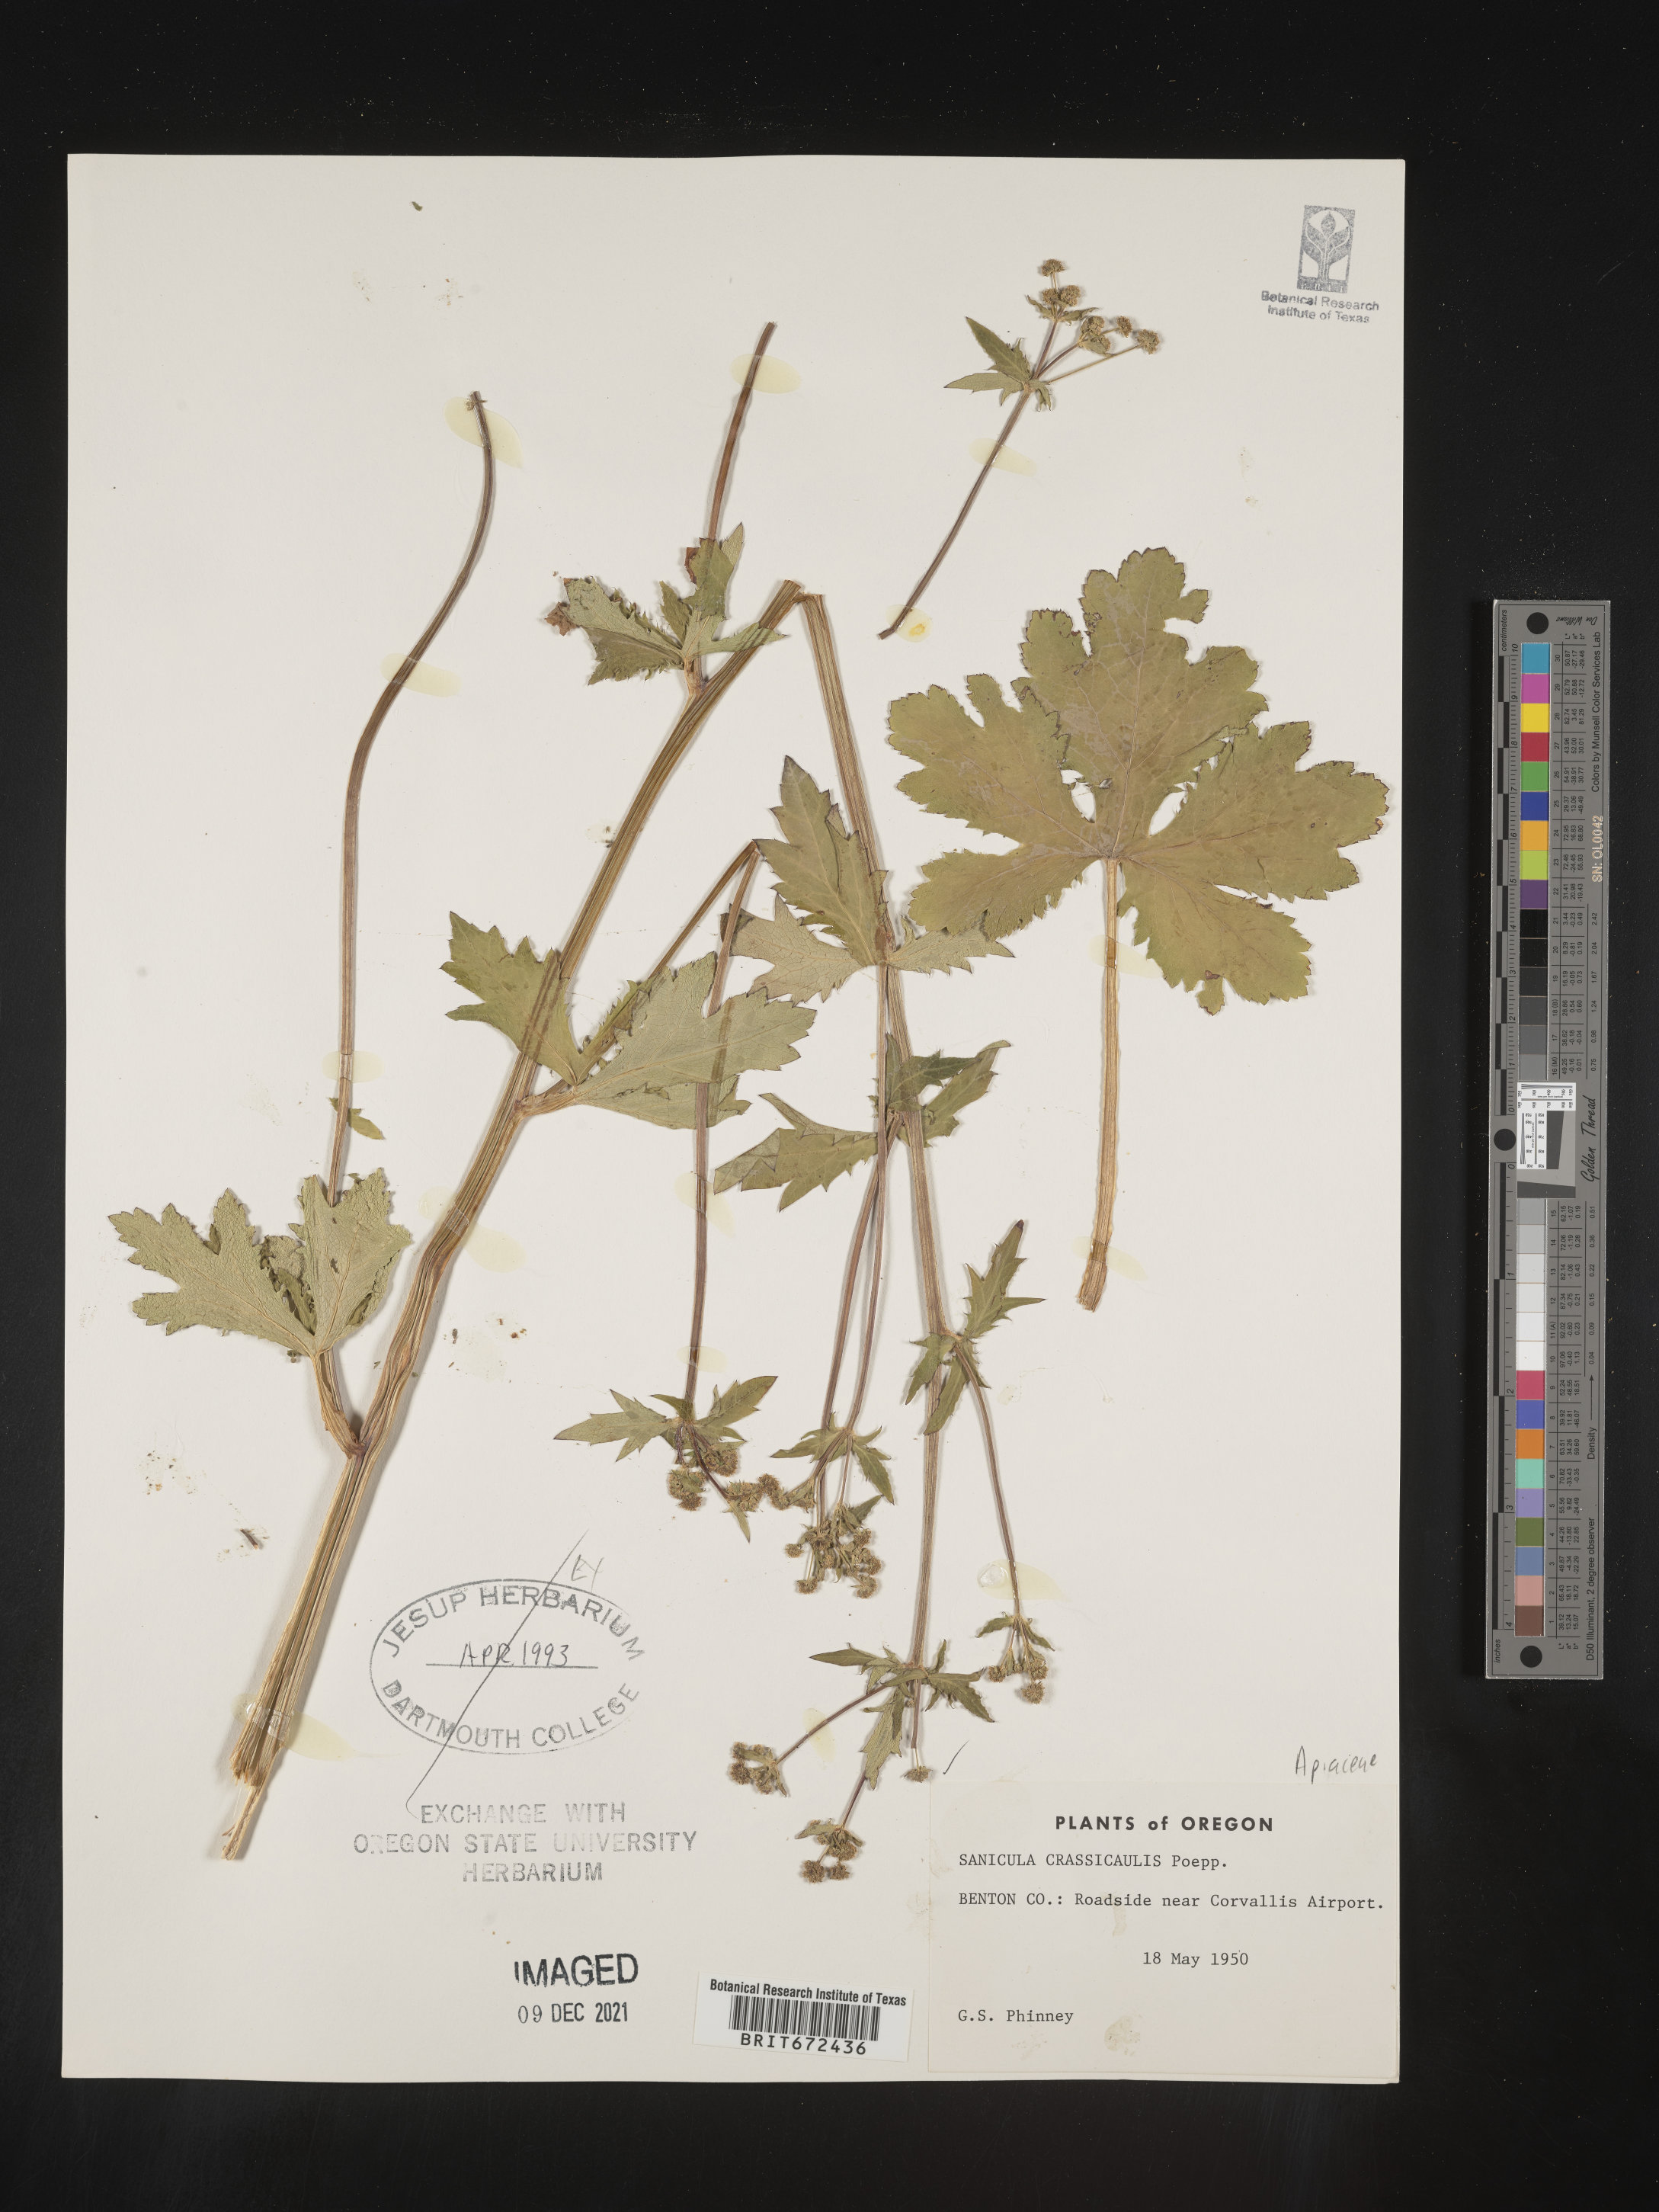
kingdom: Plantae
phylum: Tracheophyta
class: Magnoliopsida
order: Apiales
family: Apiaceae
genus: Sanicula
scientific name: Sanicula crassicaulis
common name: Western snakeroot
